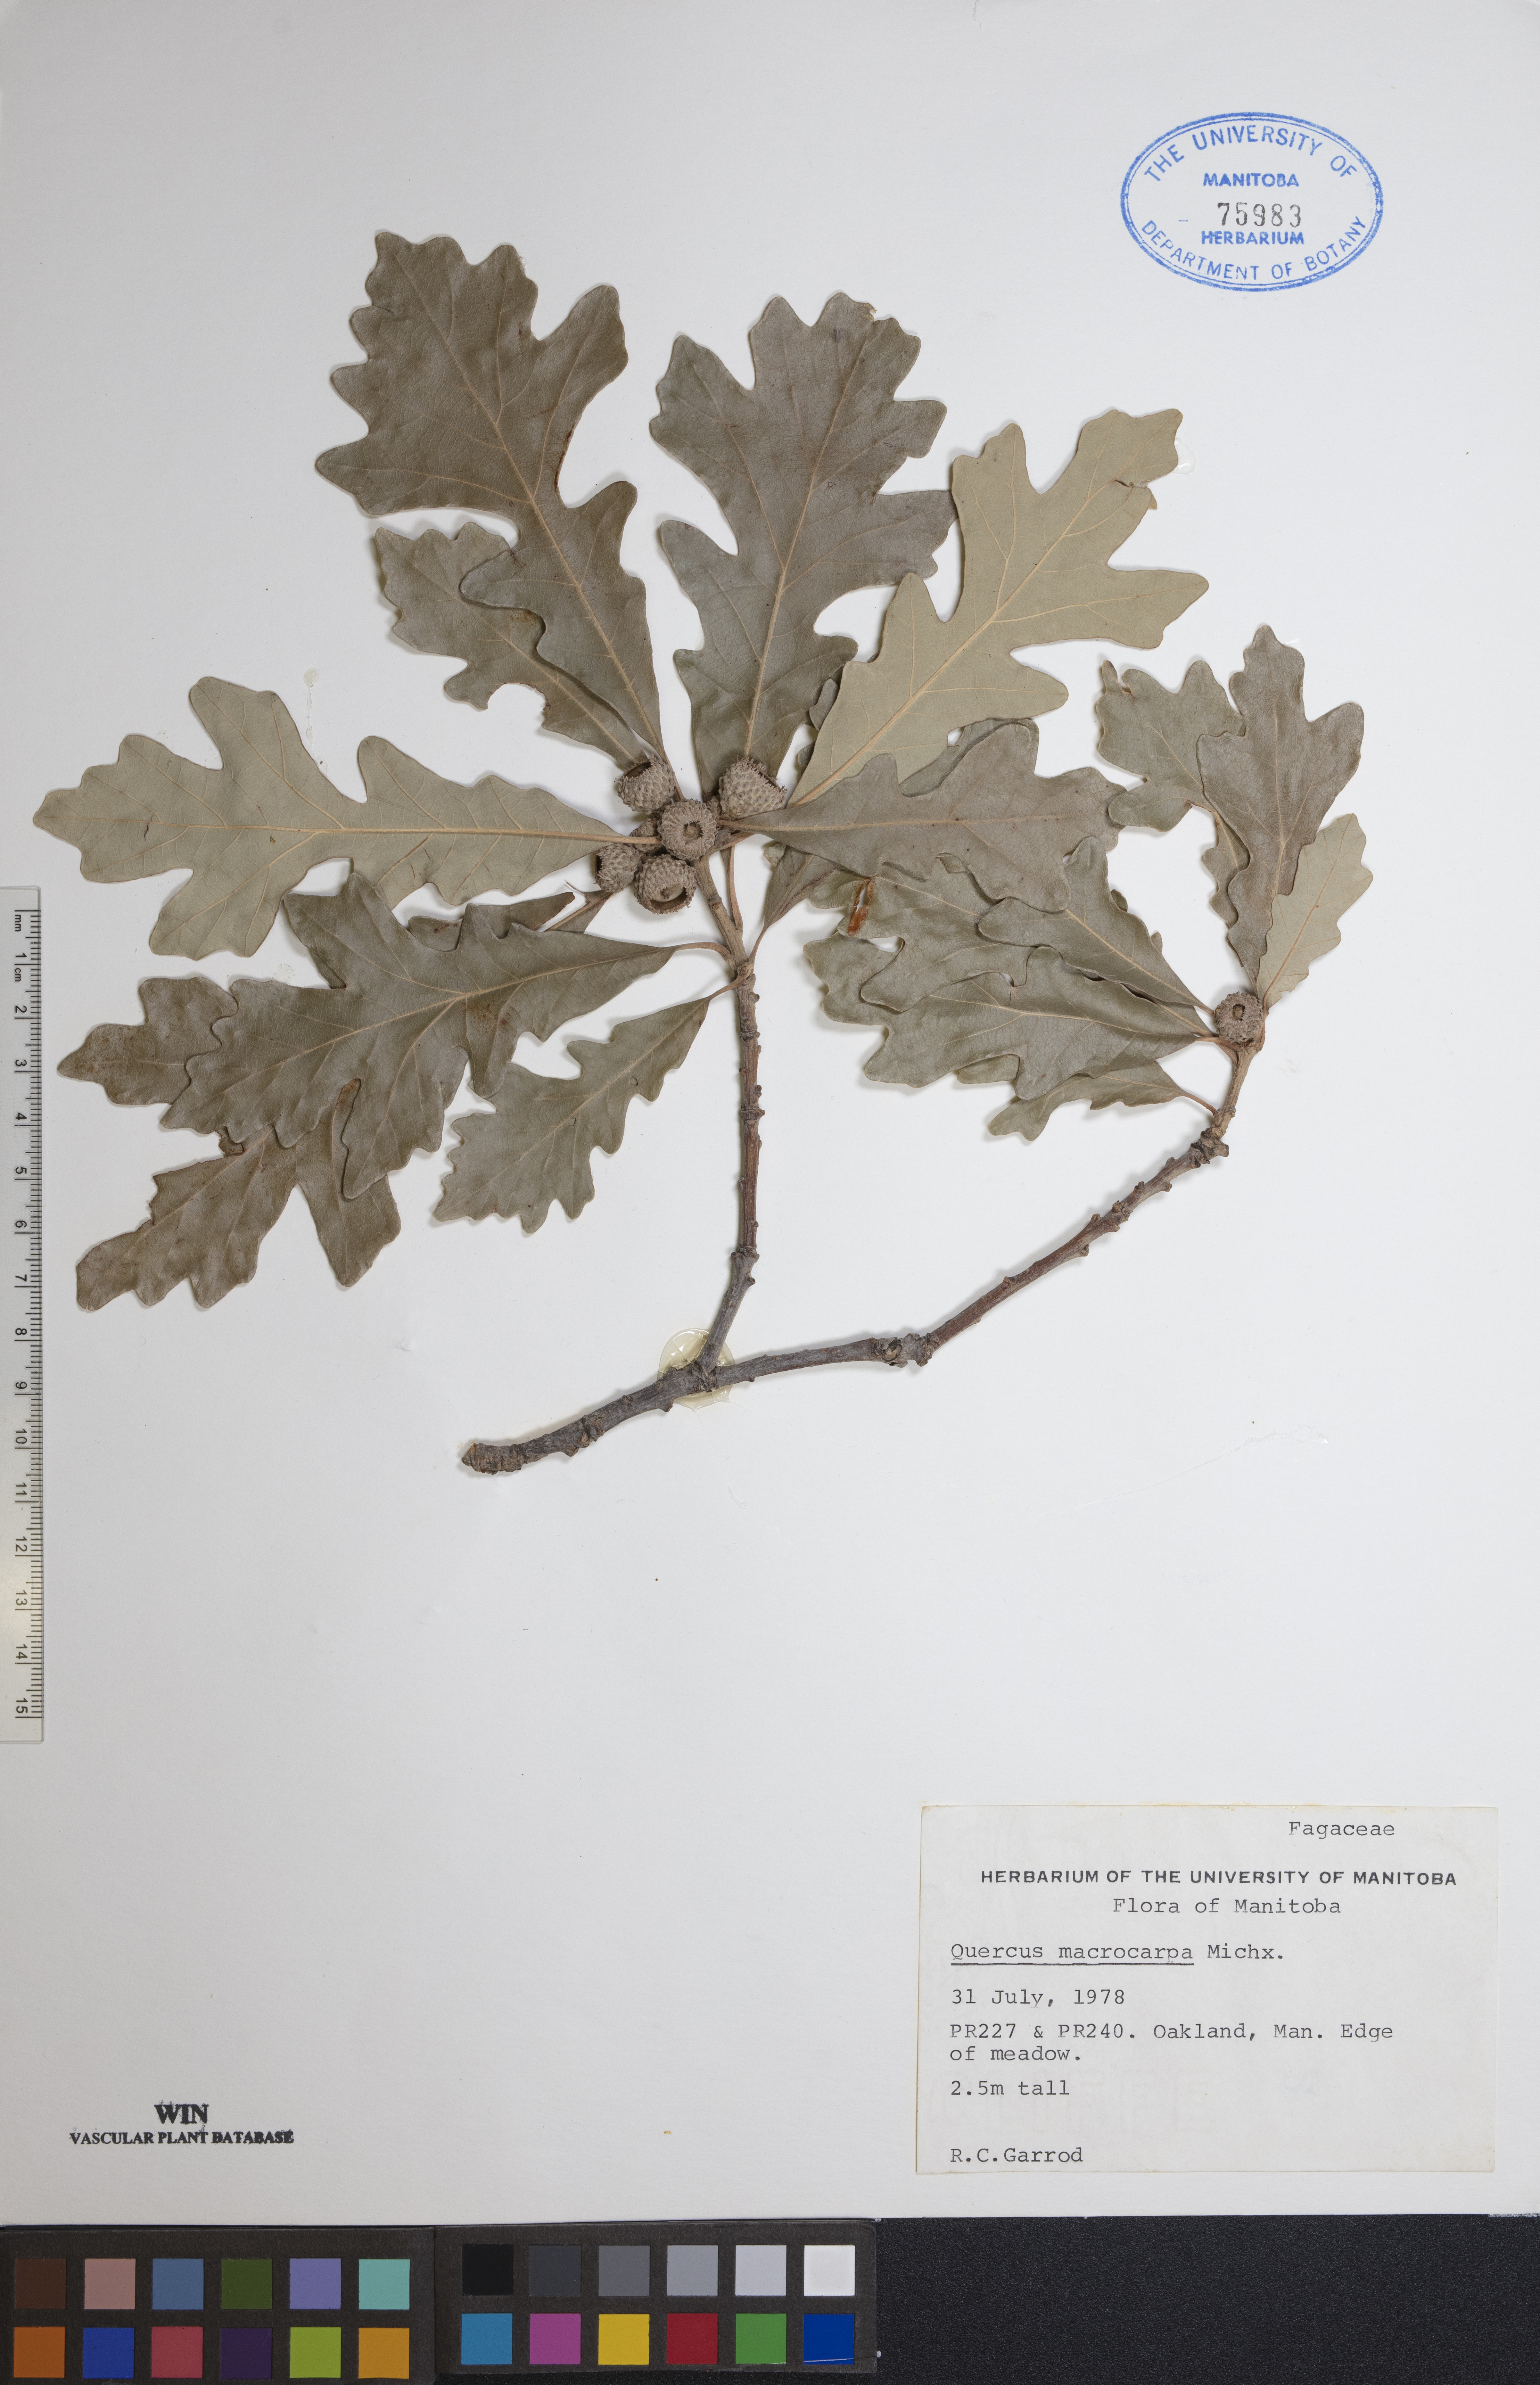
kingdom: Plantae
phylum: Tracheophyta
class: Magnoliopsida
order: Fagales
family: Fagaceae
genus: Quercus
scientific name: Quercus macrocarpa
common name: Bur oak
